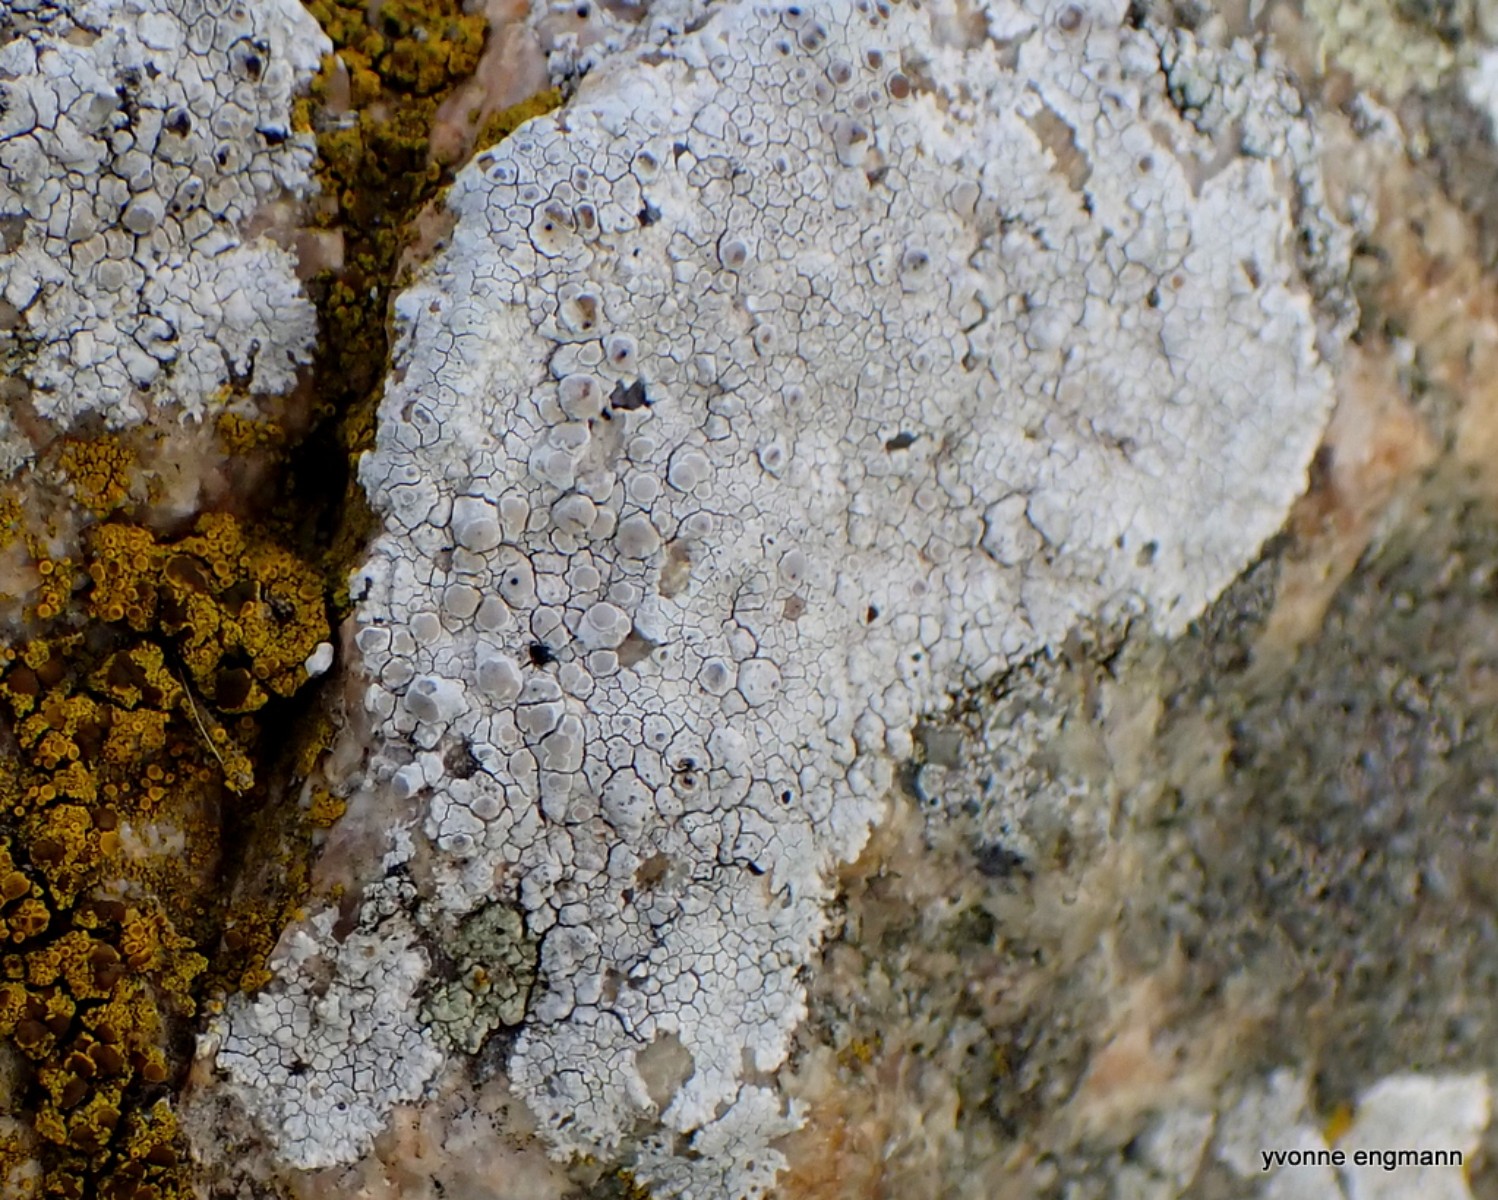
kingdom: Fungi
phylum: Ascomycota
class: Lecanoromycetes
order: Lecanorales
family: Lecanoraceae
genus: Glaucomaria
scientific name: Glaucomaria rupicola
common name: stengærde-kantskivelav
